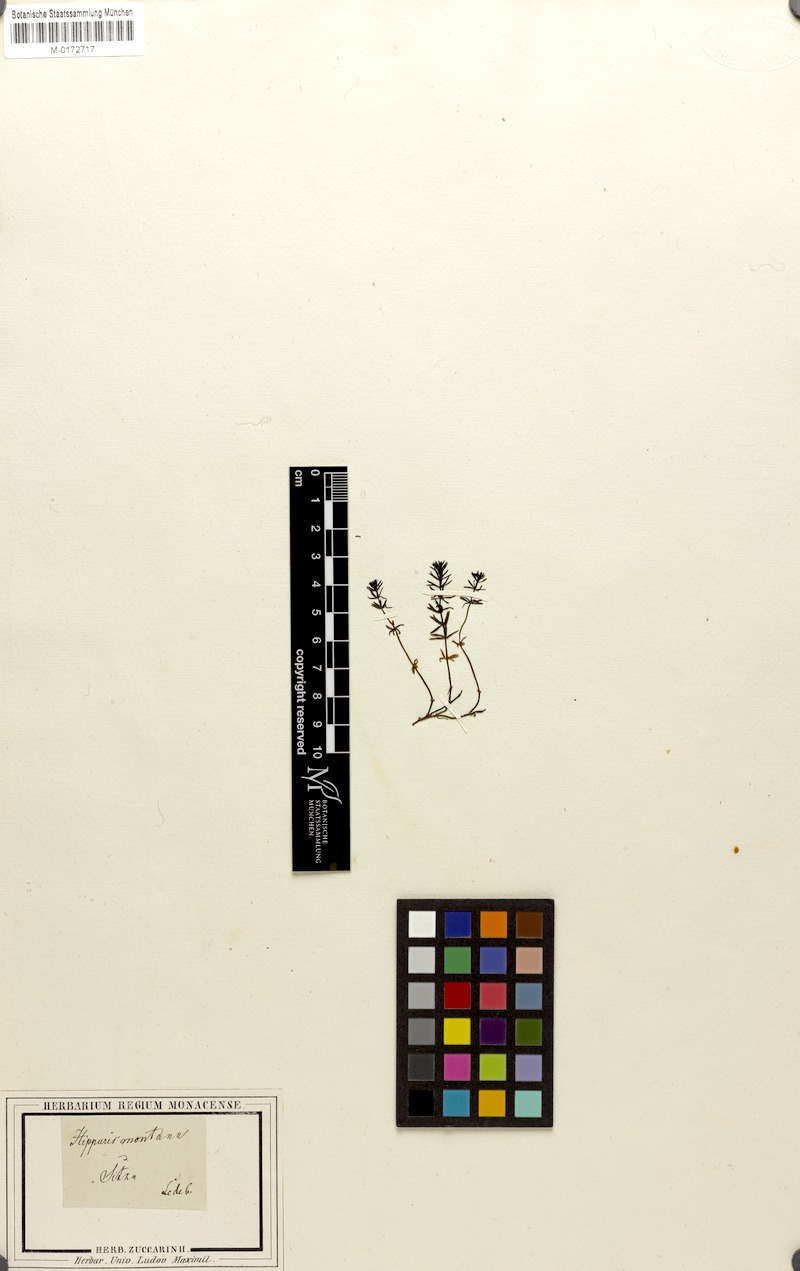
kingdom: Plantae
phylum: Tracheophyta
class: Magnoliopsida
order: Lamiales
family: Plantaginaceae
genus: Hippuris
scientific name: Hippuris montana
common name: Mountain mare's-tail
